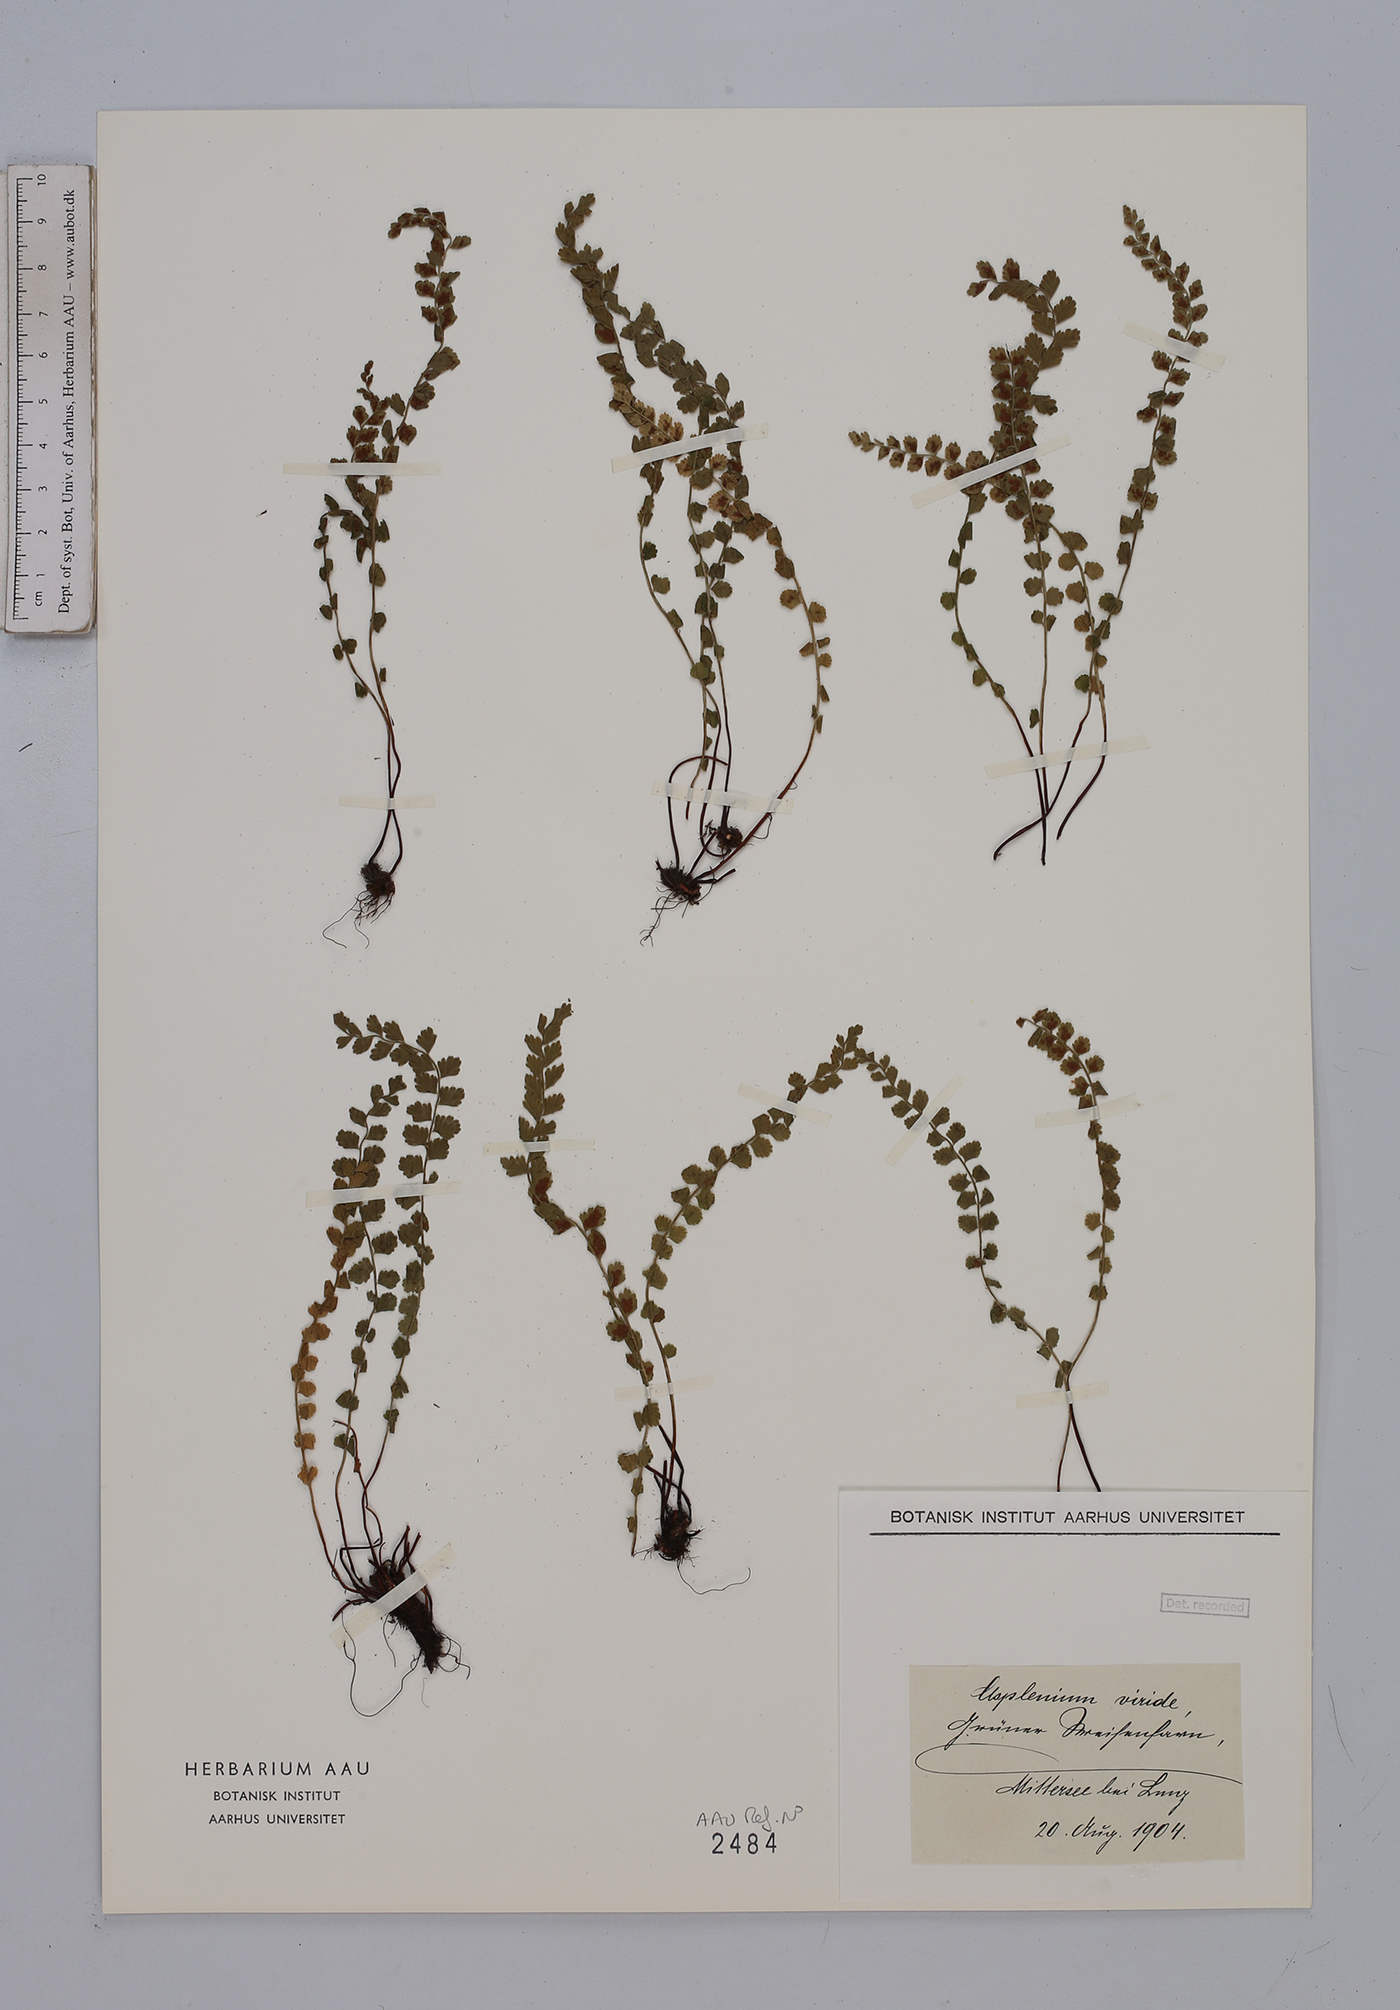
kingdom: Plantae
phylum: Tracheophyta
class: Polypodiopsida
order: Polypodiales
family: Aspleniaceae
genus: Asplenium
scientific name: Asplenium viride
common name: Green spleenwort
